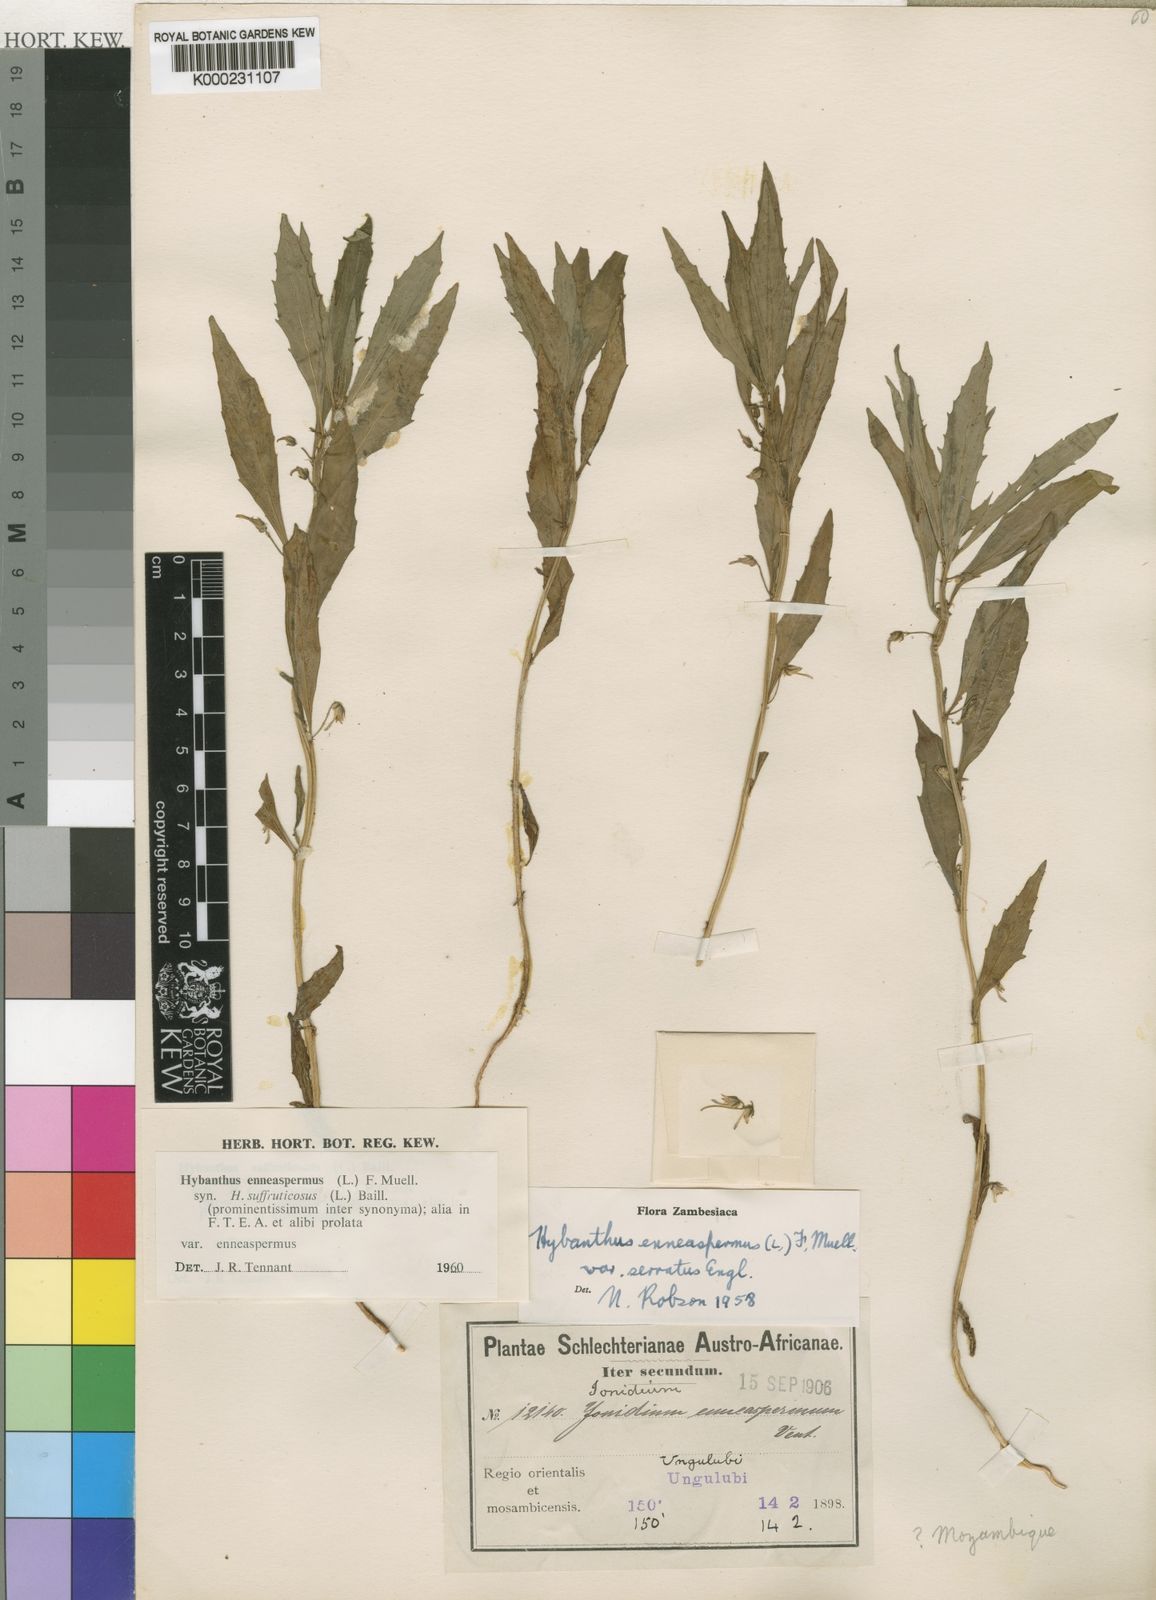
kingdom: Plantae
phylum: Tracheophyta
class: Magnoliopsida
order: Malpighiales
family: Violaceae
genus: Pigea
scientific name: Pigea enneasperma
